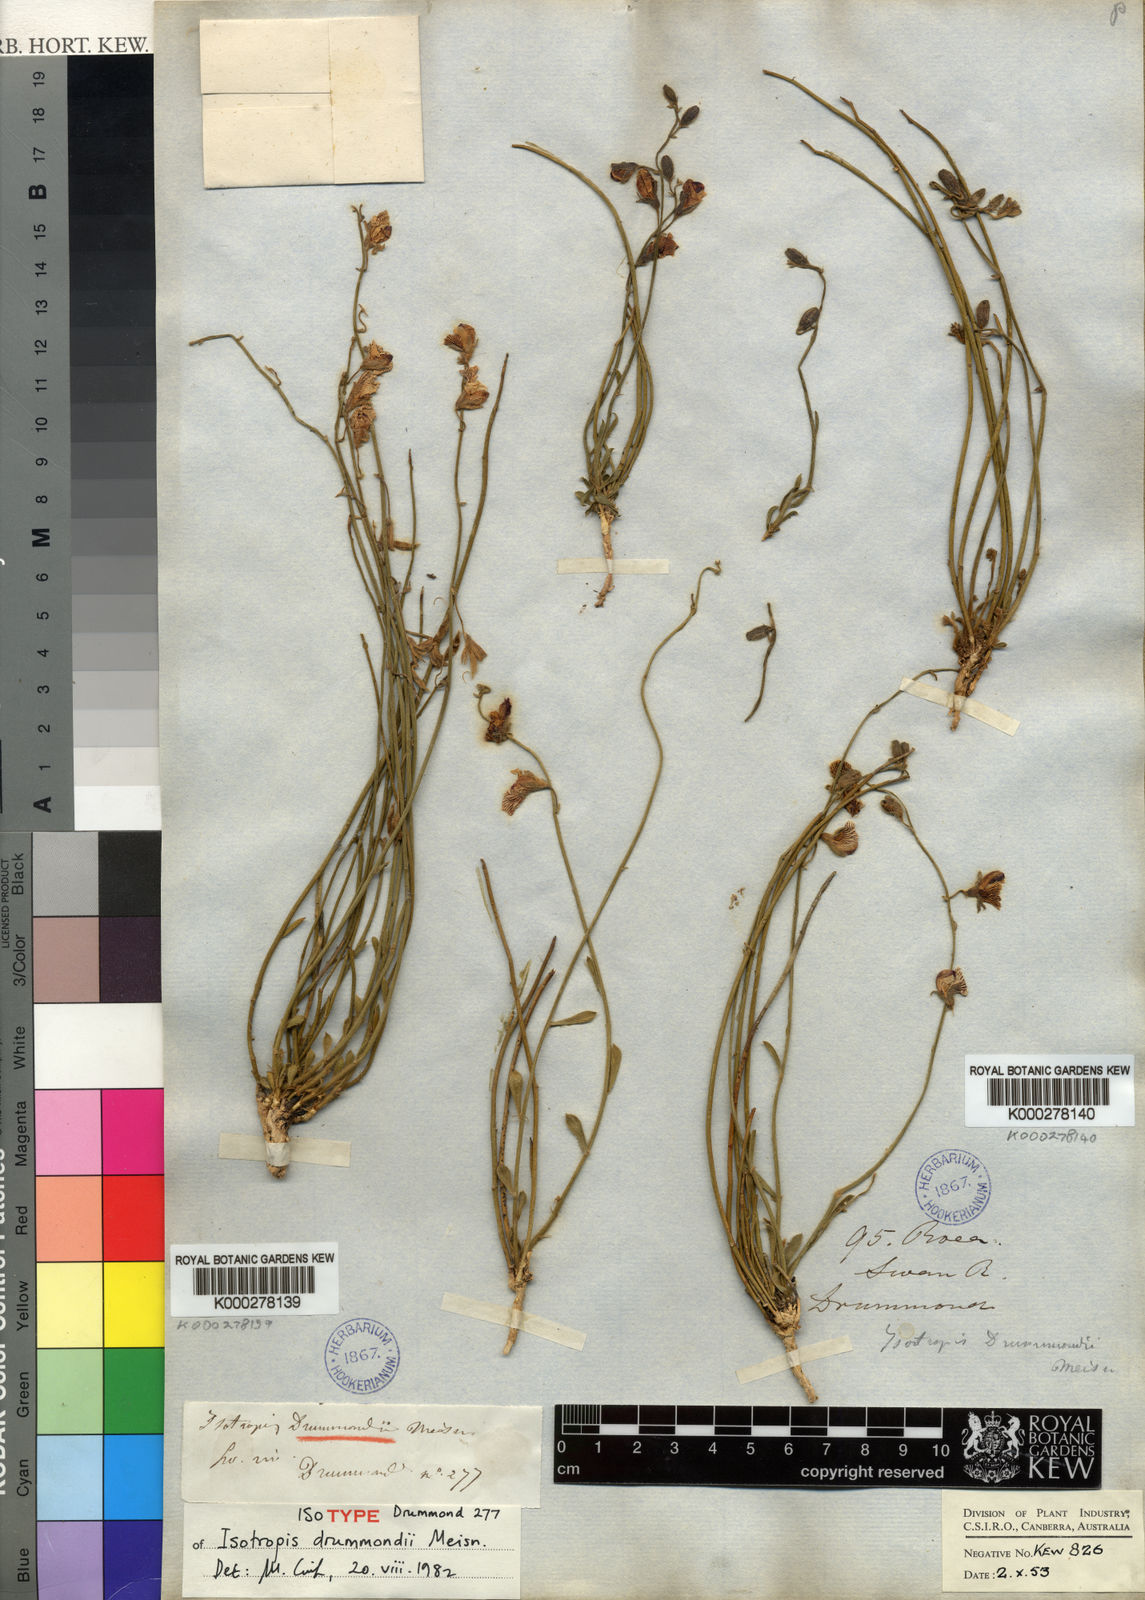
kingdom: Plantae
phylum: Tracheophyta
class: Magnoliopsida
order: Fabales
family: Fabaceae
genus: Isotropis
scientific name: Isotropis drummondii
